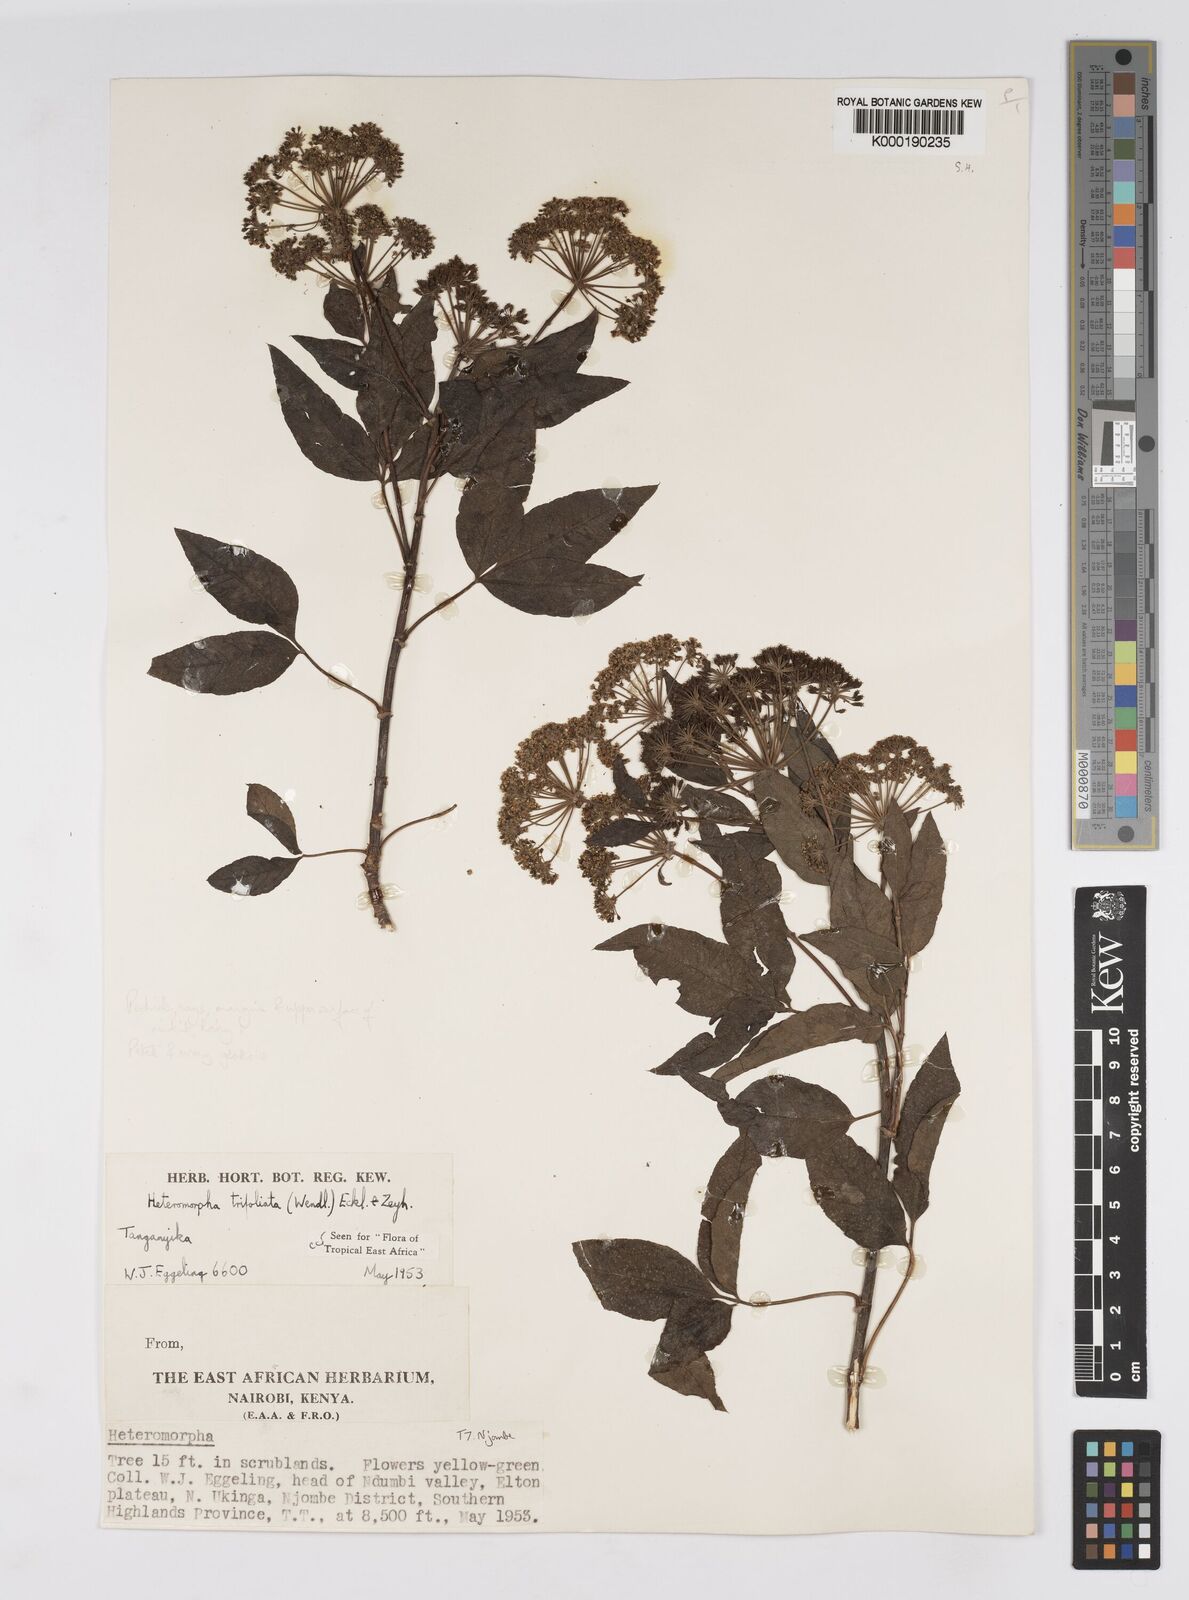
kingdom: Plantae
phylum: Tracheophyta
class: Magnoliopsida
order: Apiales
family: Apiaceae
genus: Heteromorpha
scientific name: Heteromorpha arborescens
